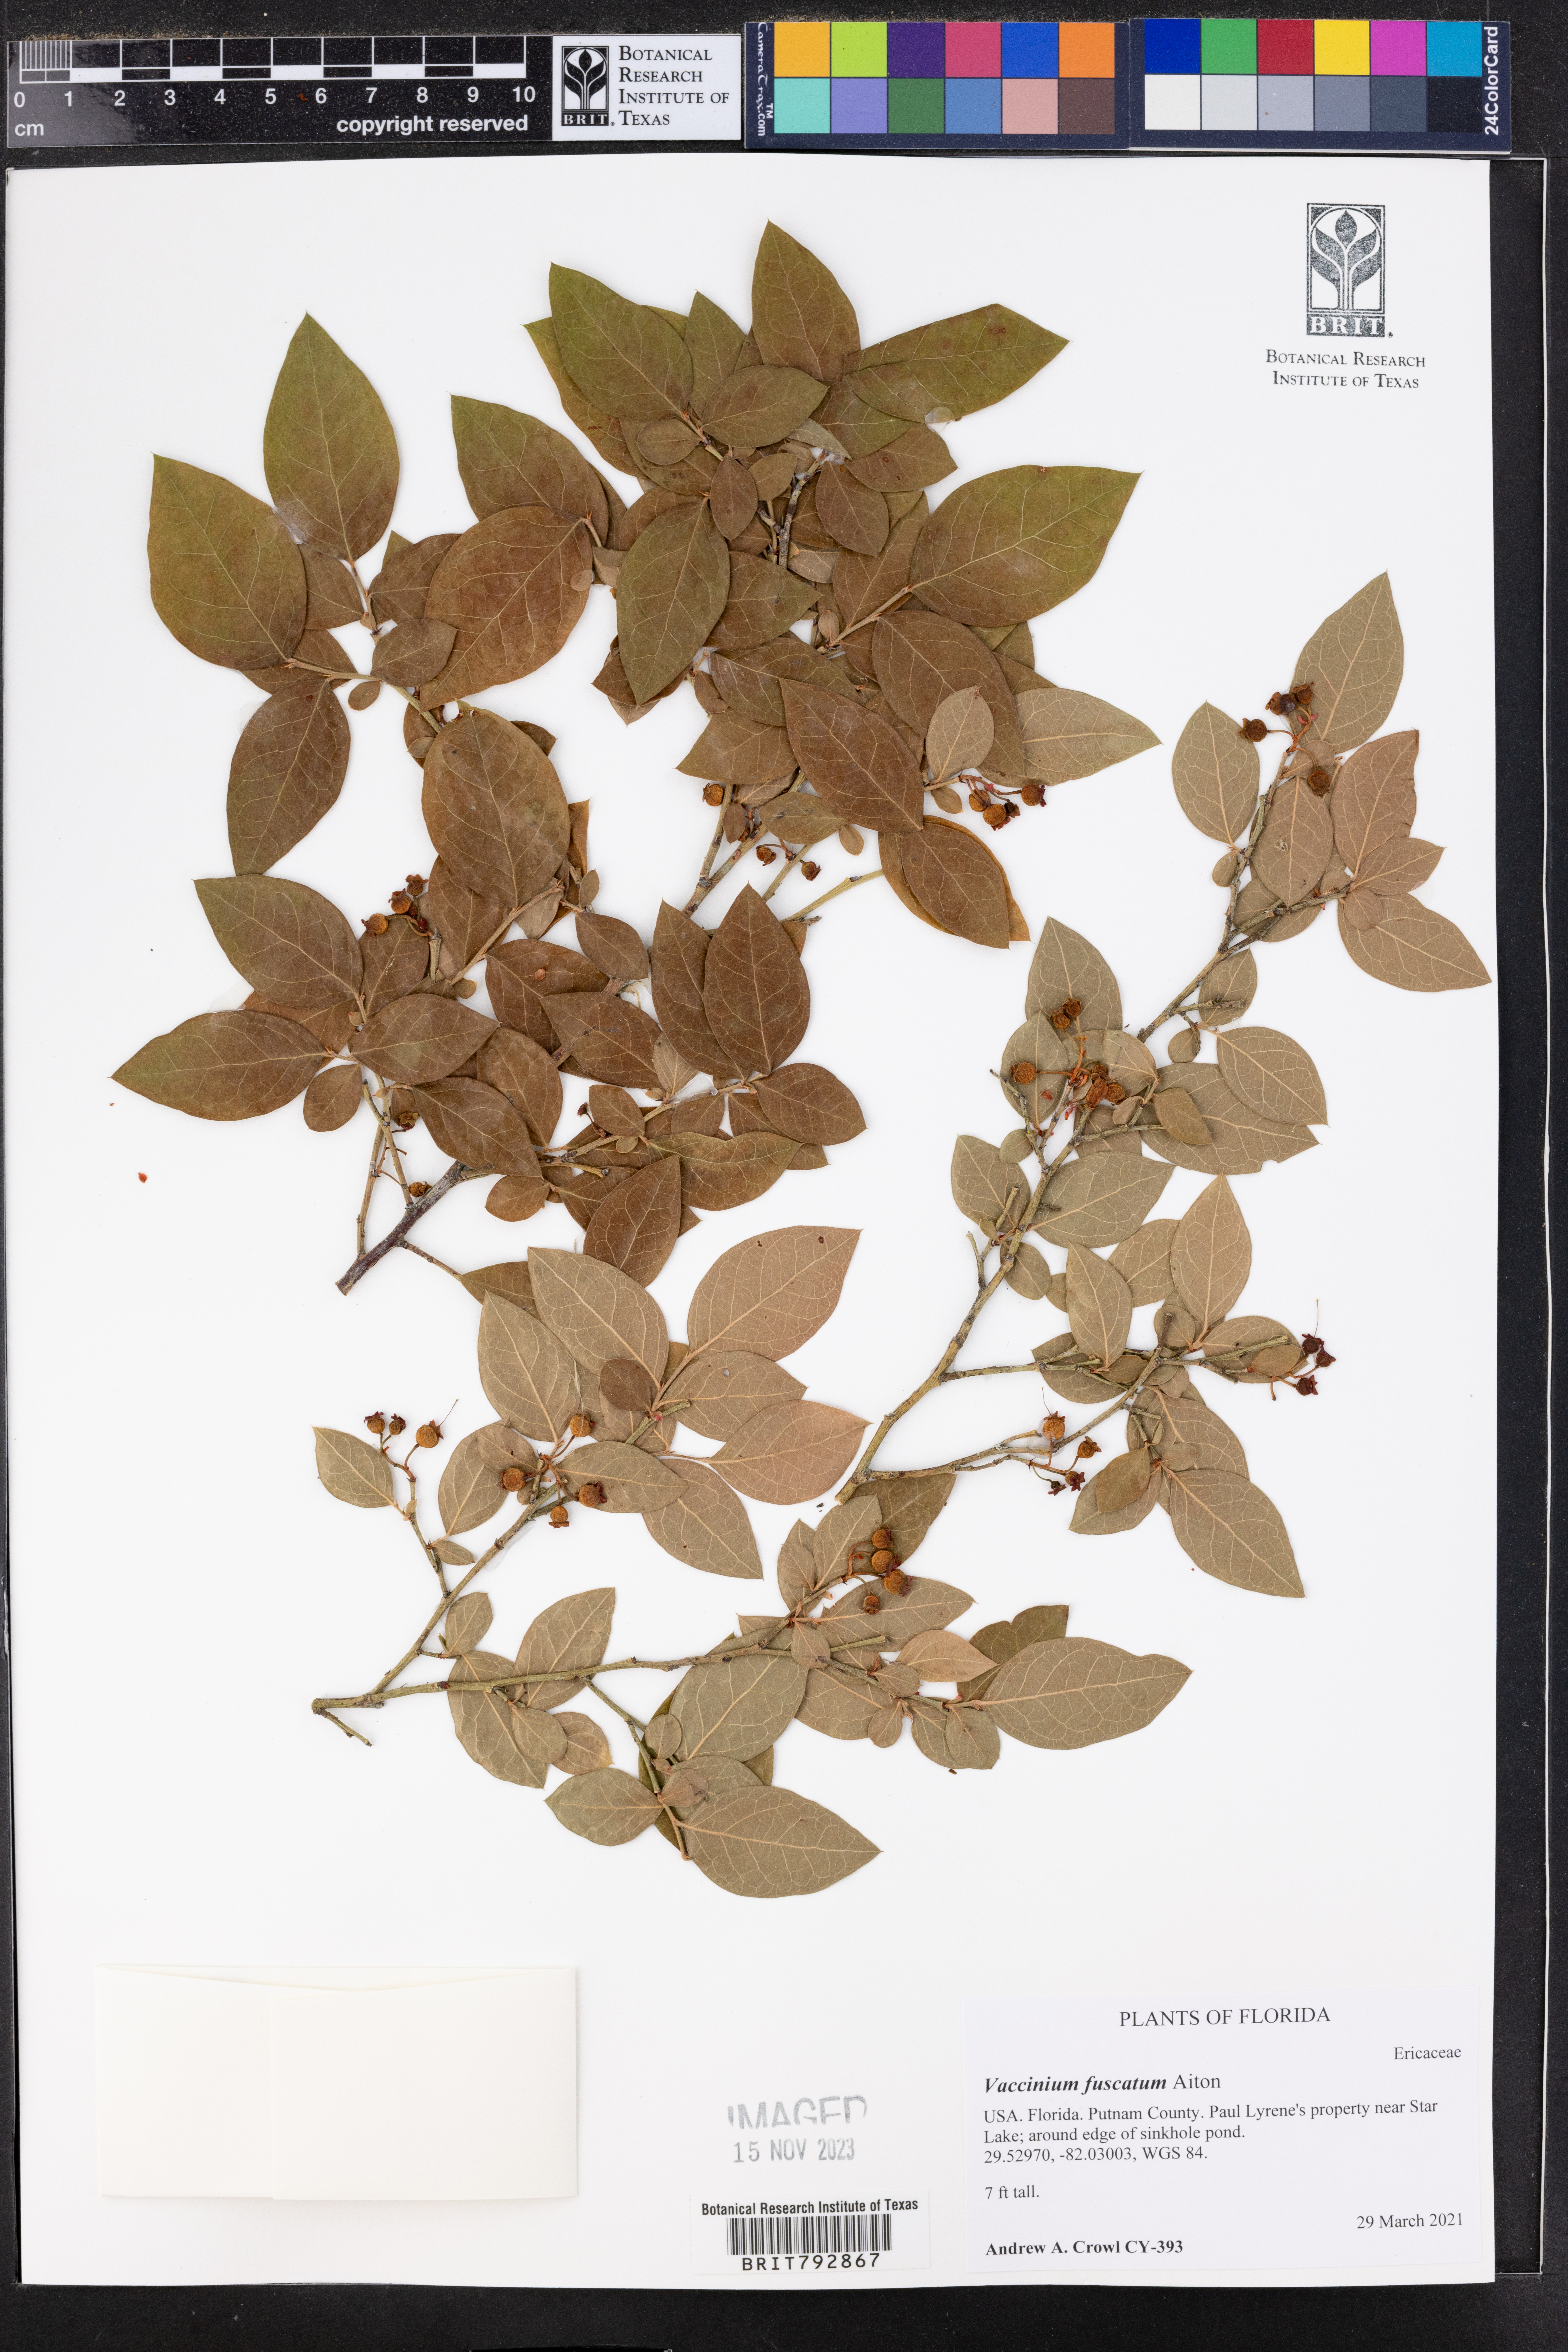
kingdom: Plantae
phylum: Tracheophyta
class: Magnoliopsida
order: Ericales
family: Ericaceae
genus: Vaccinium
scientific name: Vaccinium corymbosum
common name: Blueberry
